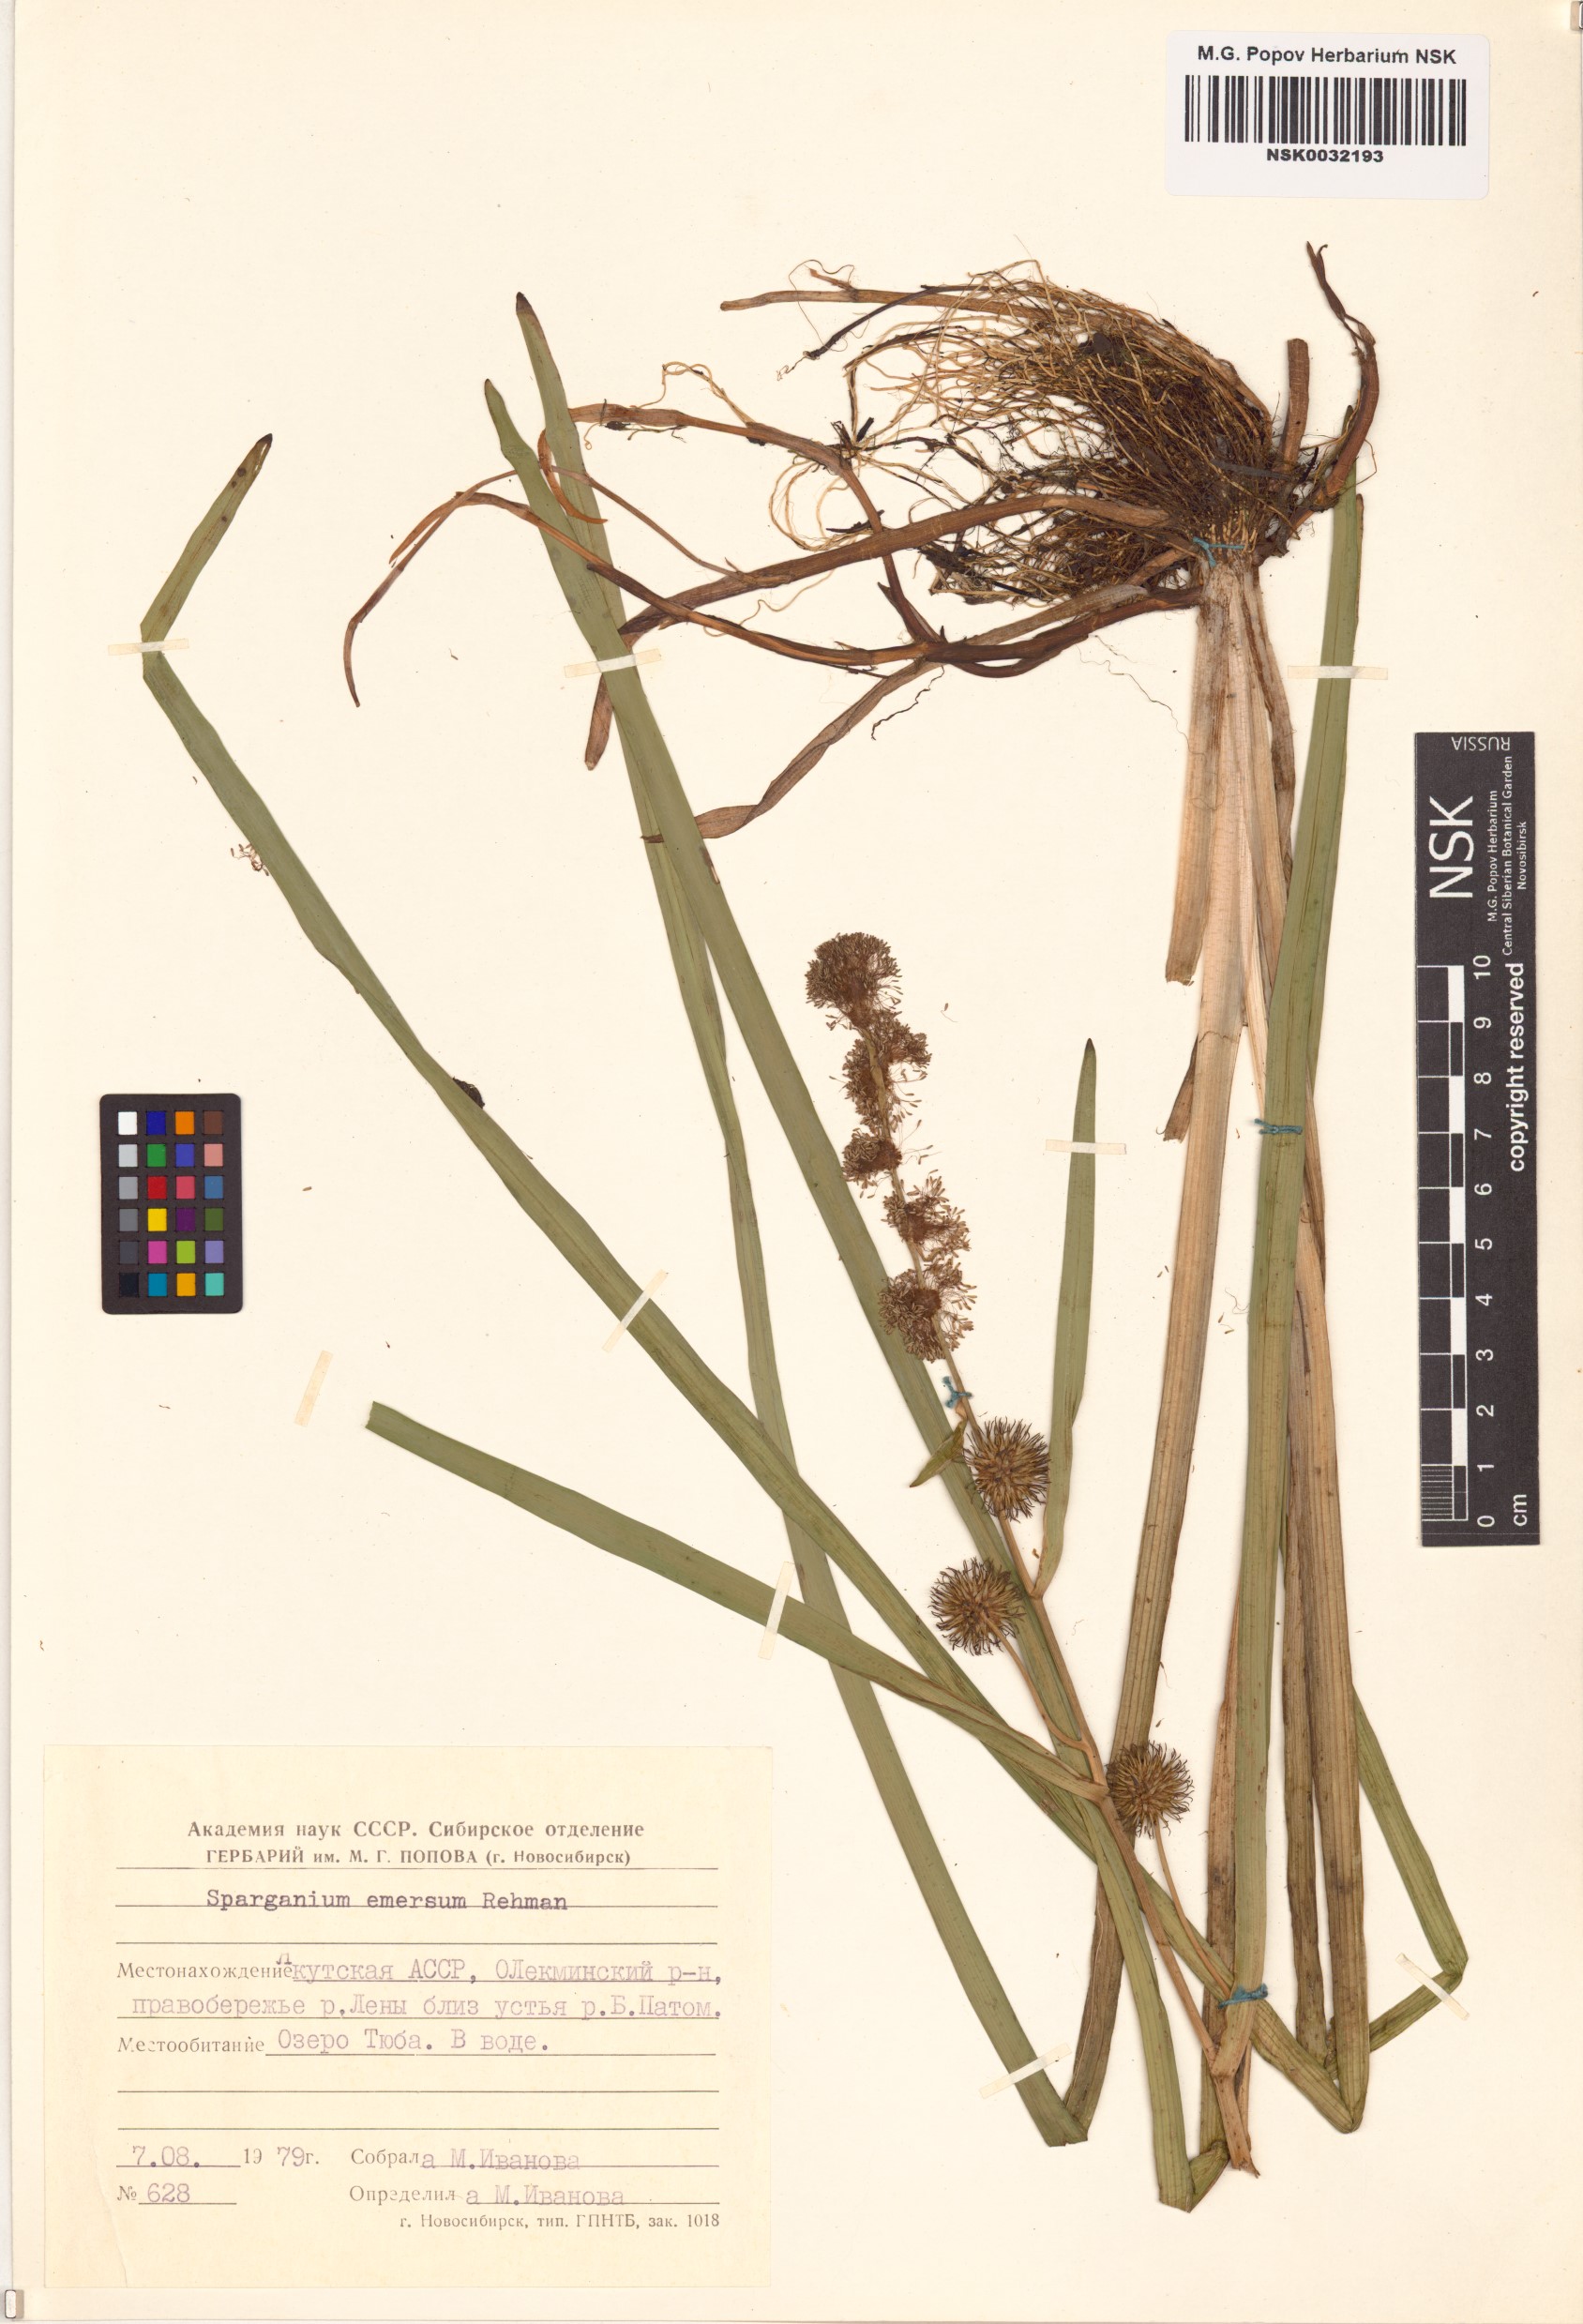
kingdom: Plantae
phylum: Tracheophyta
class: Liliopsida
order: Poales
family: Typhaceae
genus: Sparganium
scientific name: Sparganium emersum
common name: Unbranched bur-reed
